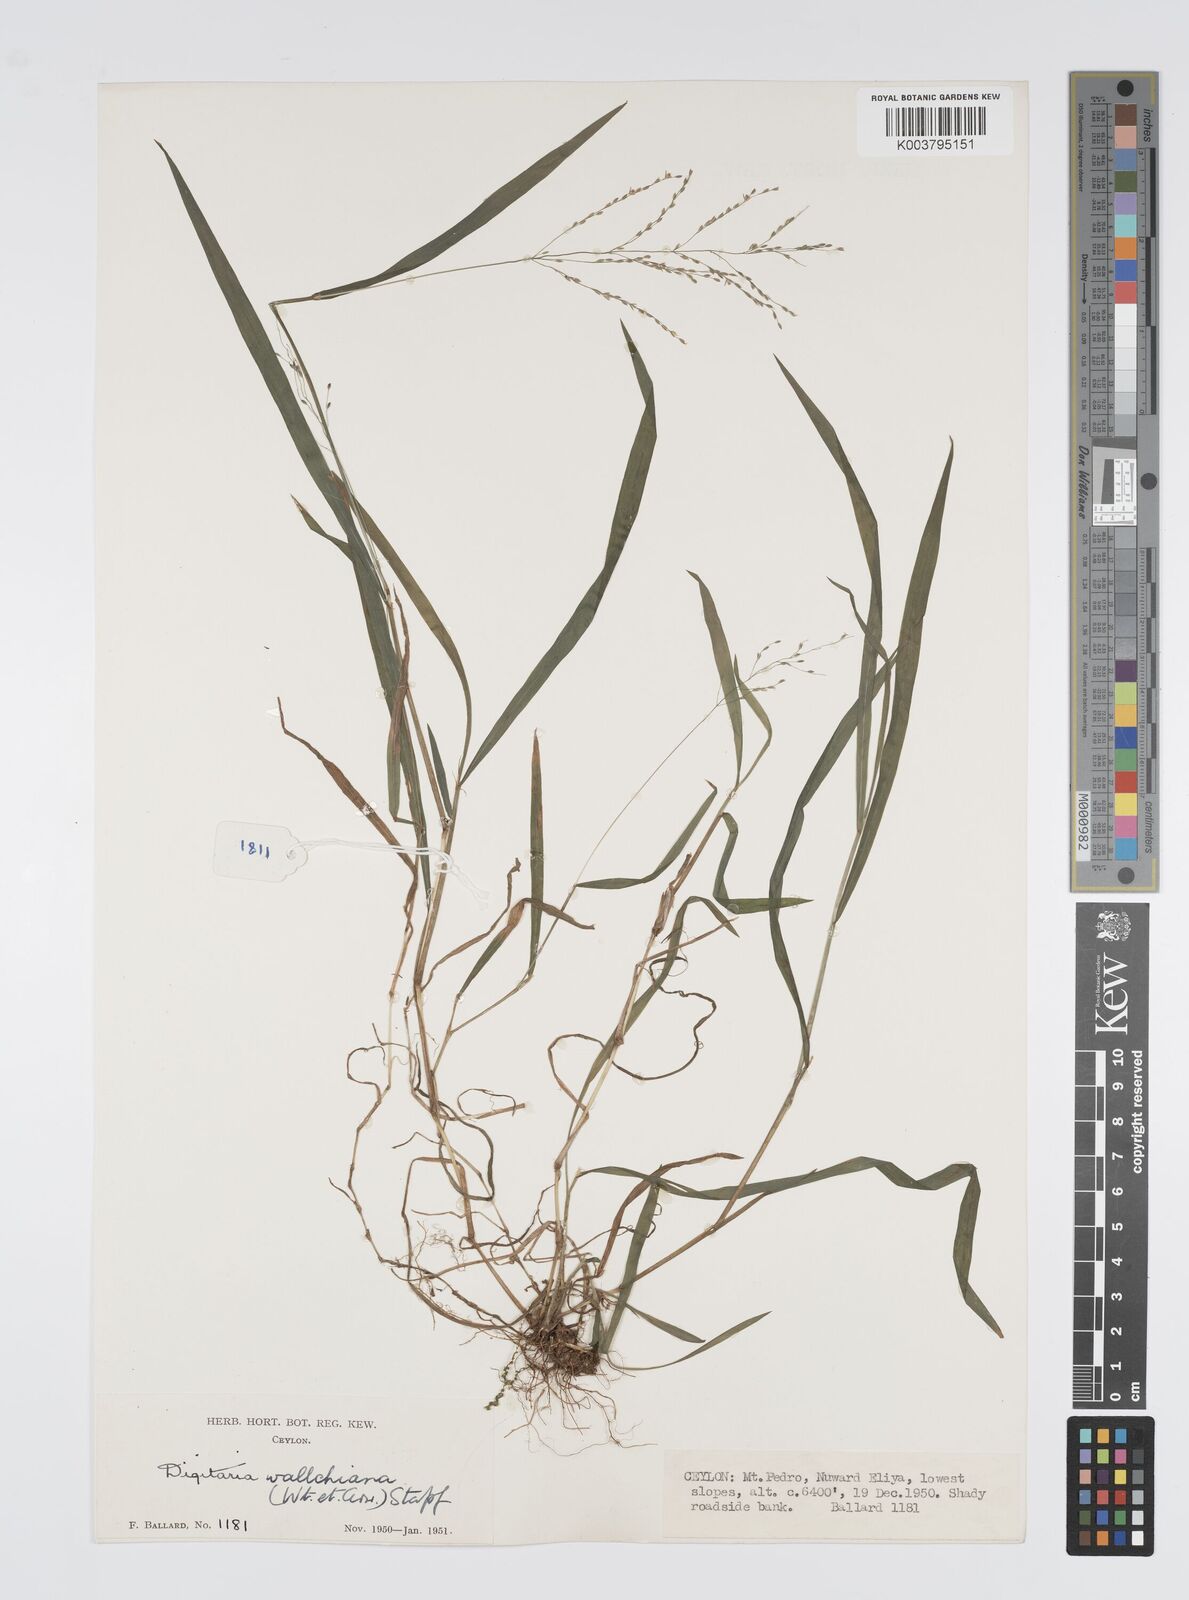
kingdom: Plantae
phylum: Tracheophyta
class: Liliopsida
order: Poales
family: Poaceae
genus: Digitaria
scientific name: Digitaria wallichiana
